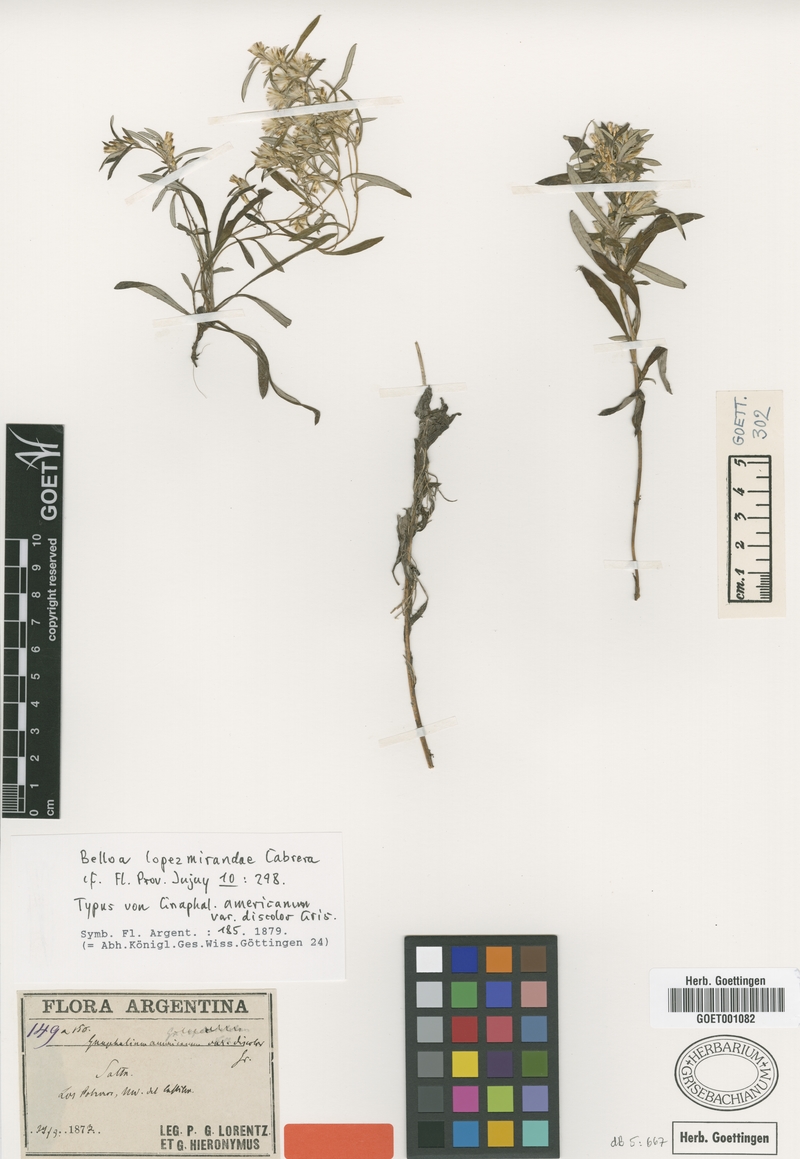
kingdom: Plantae
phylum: Tracheophyta
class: Magnoliopsida
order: Asterales
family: Asteraceae
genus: Mniodes
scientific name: Mniodes lopezmirandae
